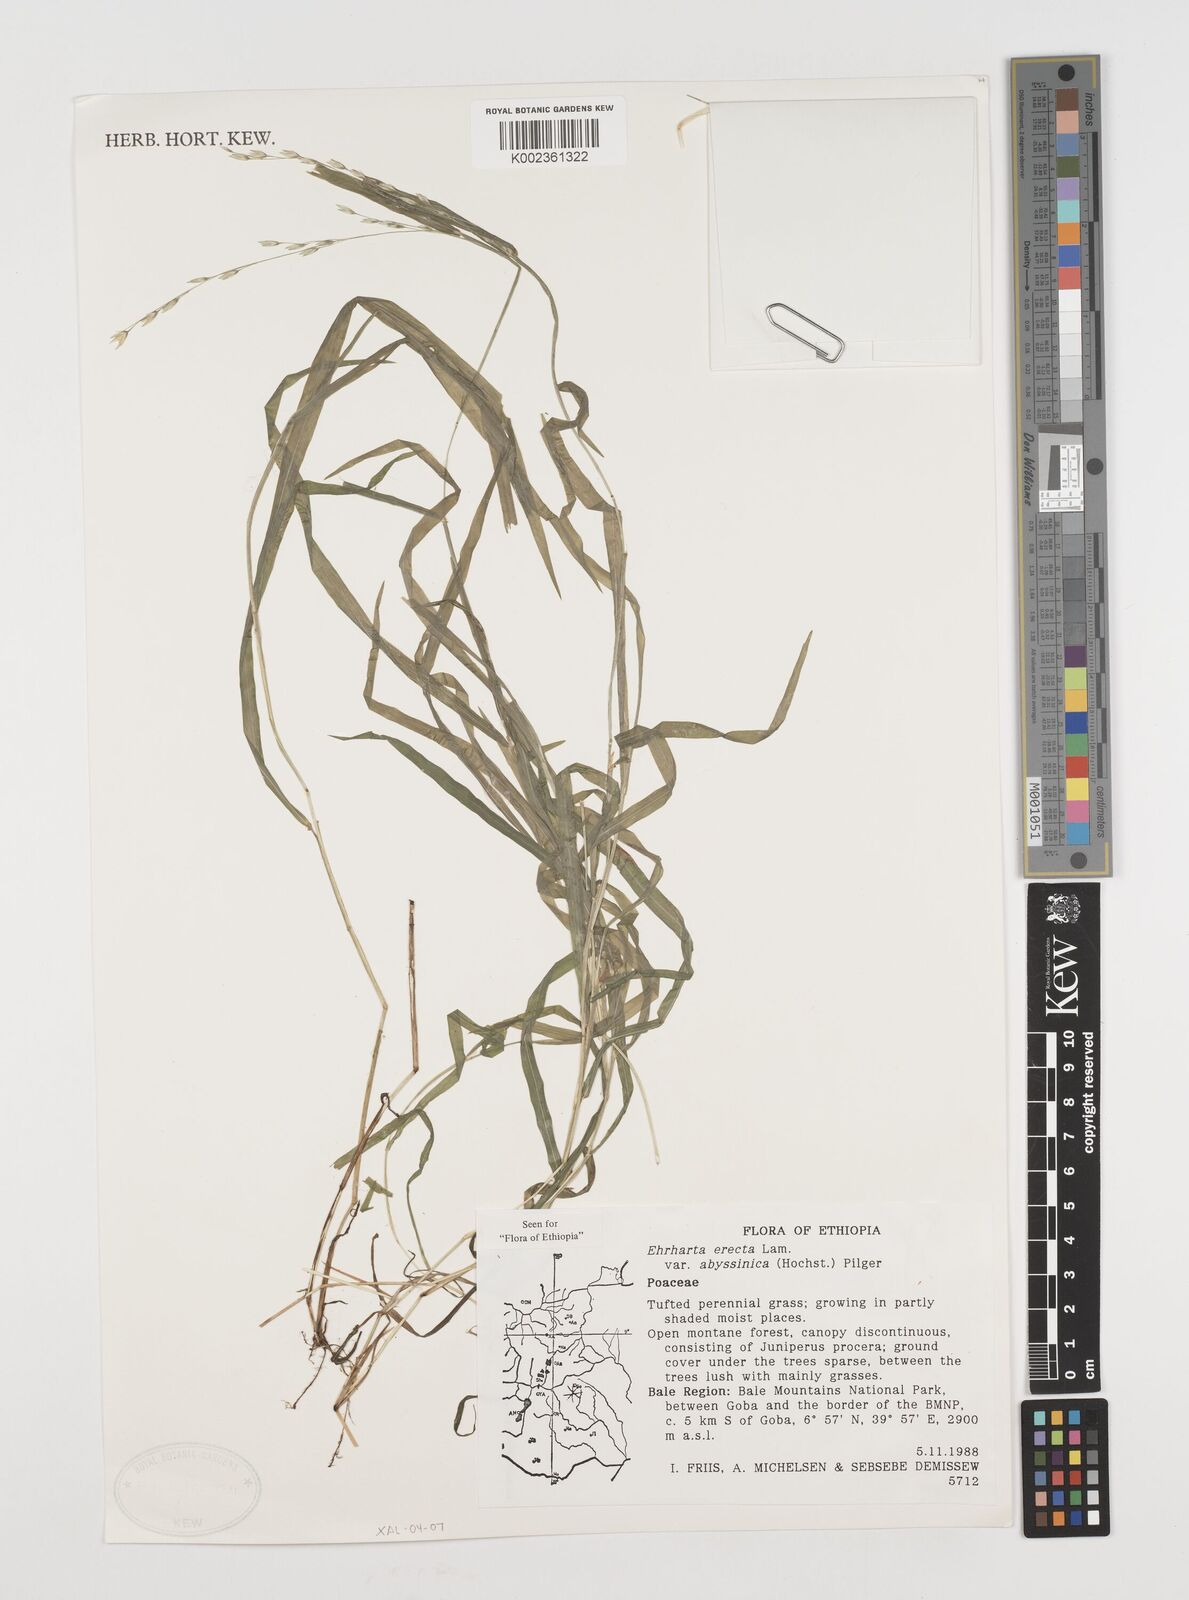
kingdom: Plantae
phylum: Tracheophyta
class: Liliopsida
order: Poales
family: Poaceae
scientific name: Poaceae
